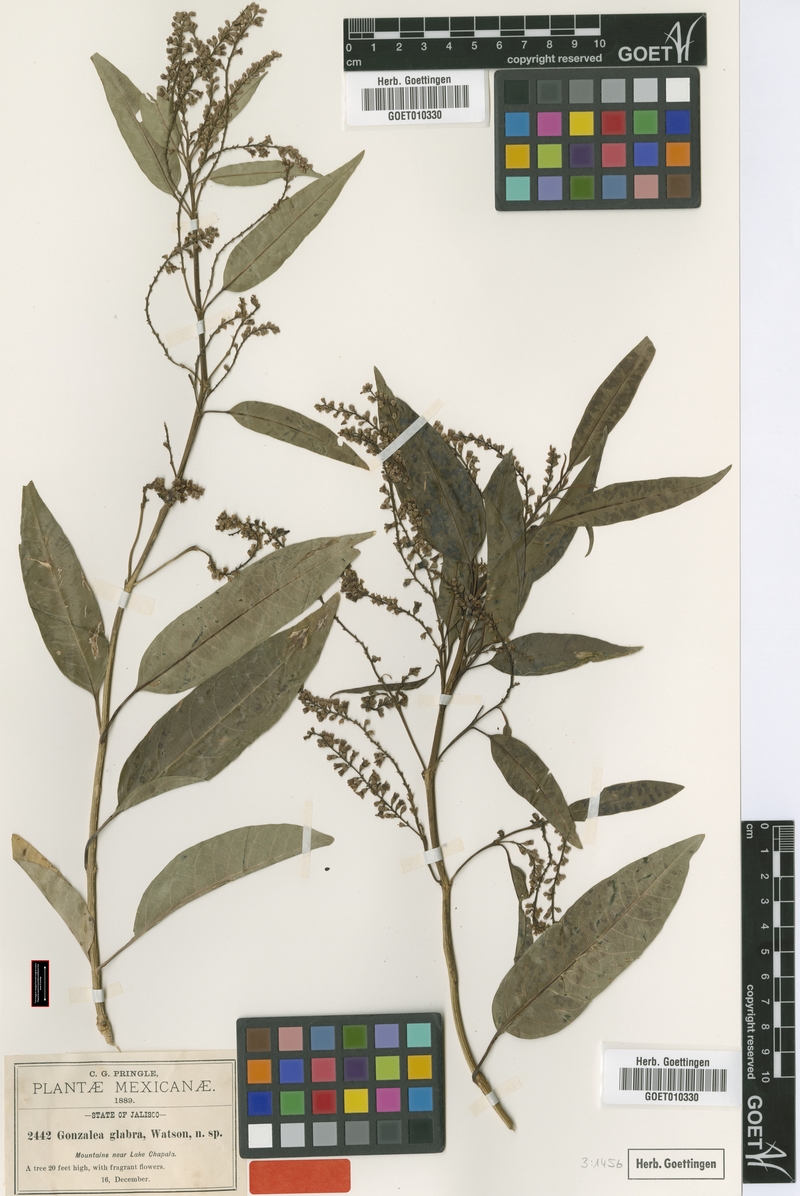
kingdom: Plantae
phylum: Tracheophyta
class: Magnoliopsida
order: Lamiales
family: Verbenaceae
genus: Citharexylum
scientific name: Citharexylum glabrum
